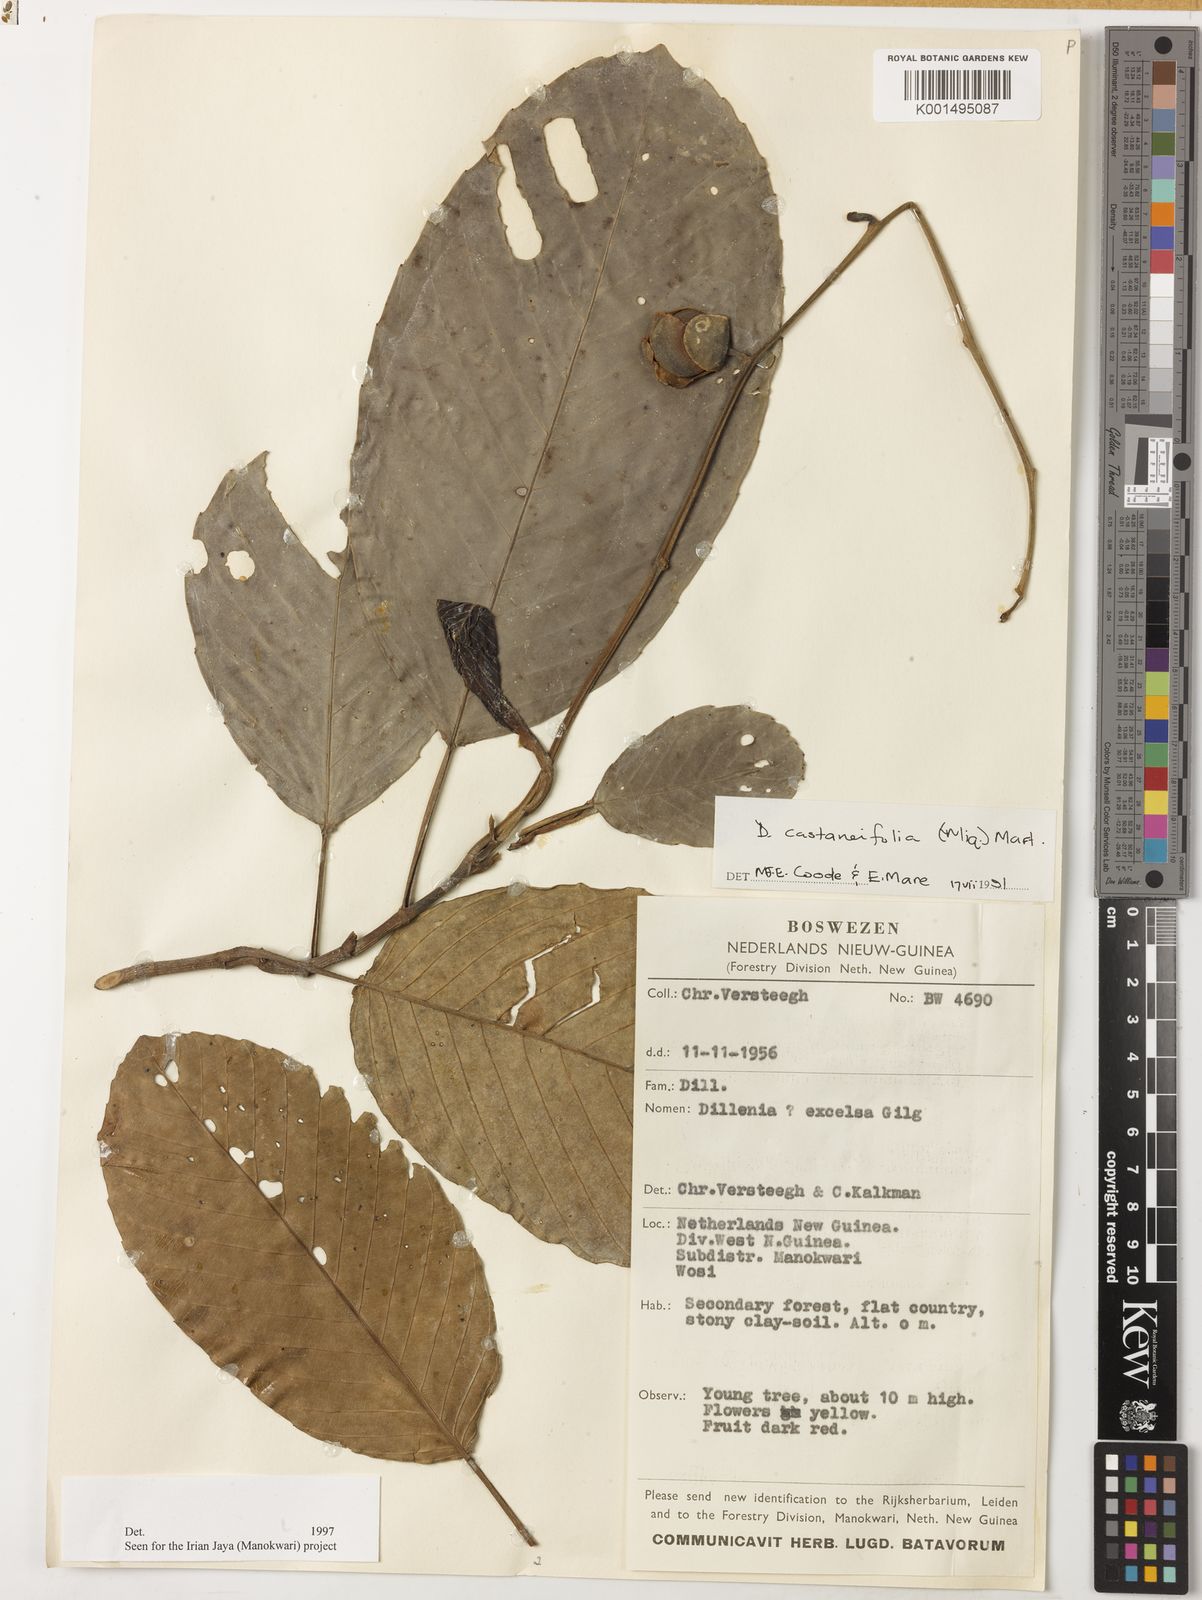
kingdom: Plantae
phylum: Tracheophyta
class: Magnoliopsida
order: Dilleniales
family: Dilleniaceae
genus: Dillenia
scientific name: Dillenia castaneifolia
